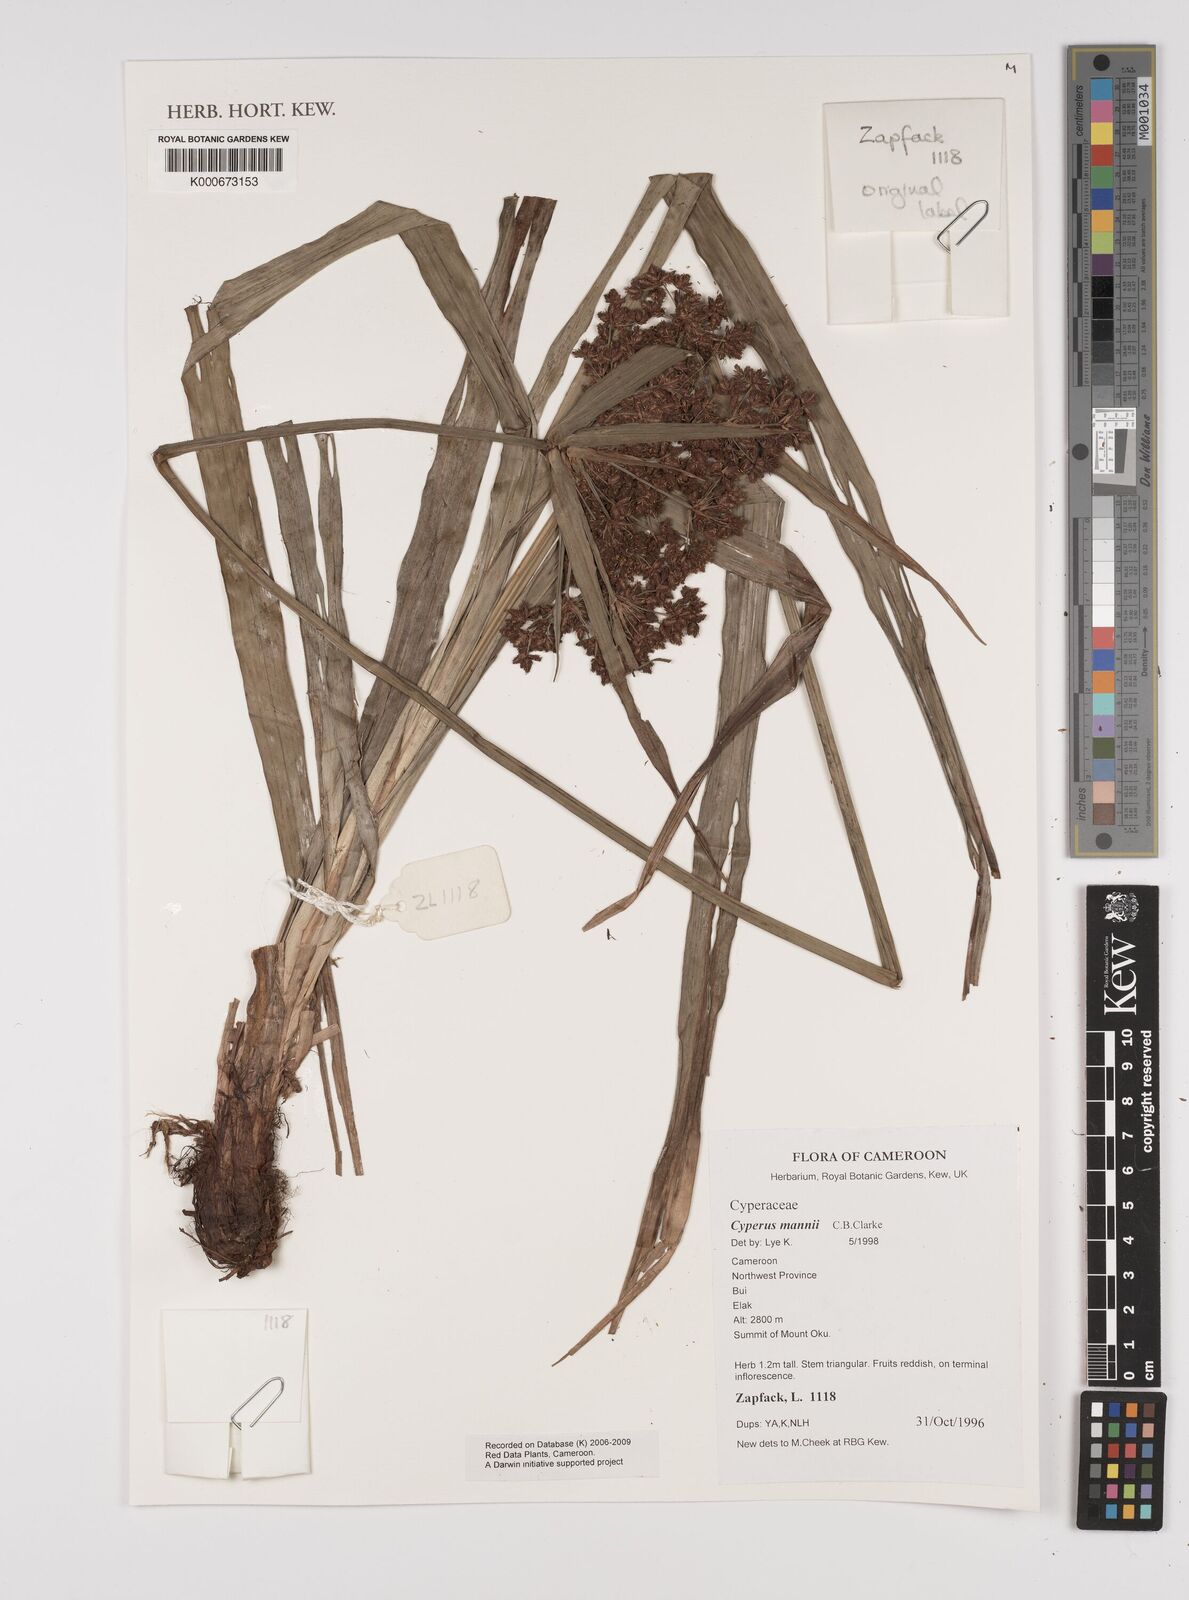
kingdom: Plantae
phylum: Tracheophyta
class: Liliopsida
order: Poales
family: Cyperaceae
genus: Cyperus
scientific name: Cyperus baronii
